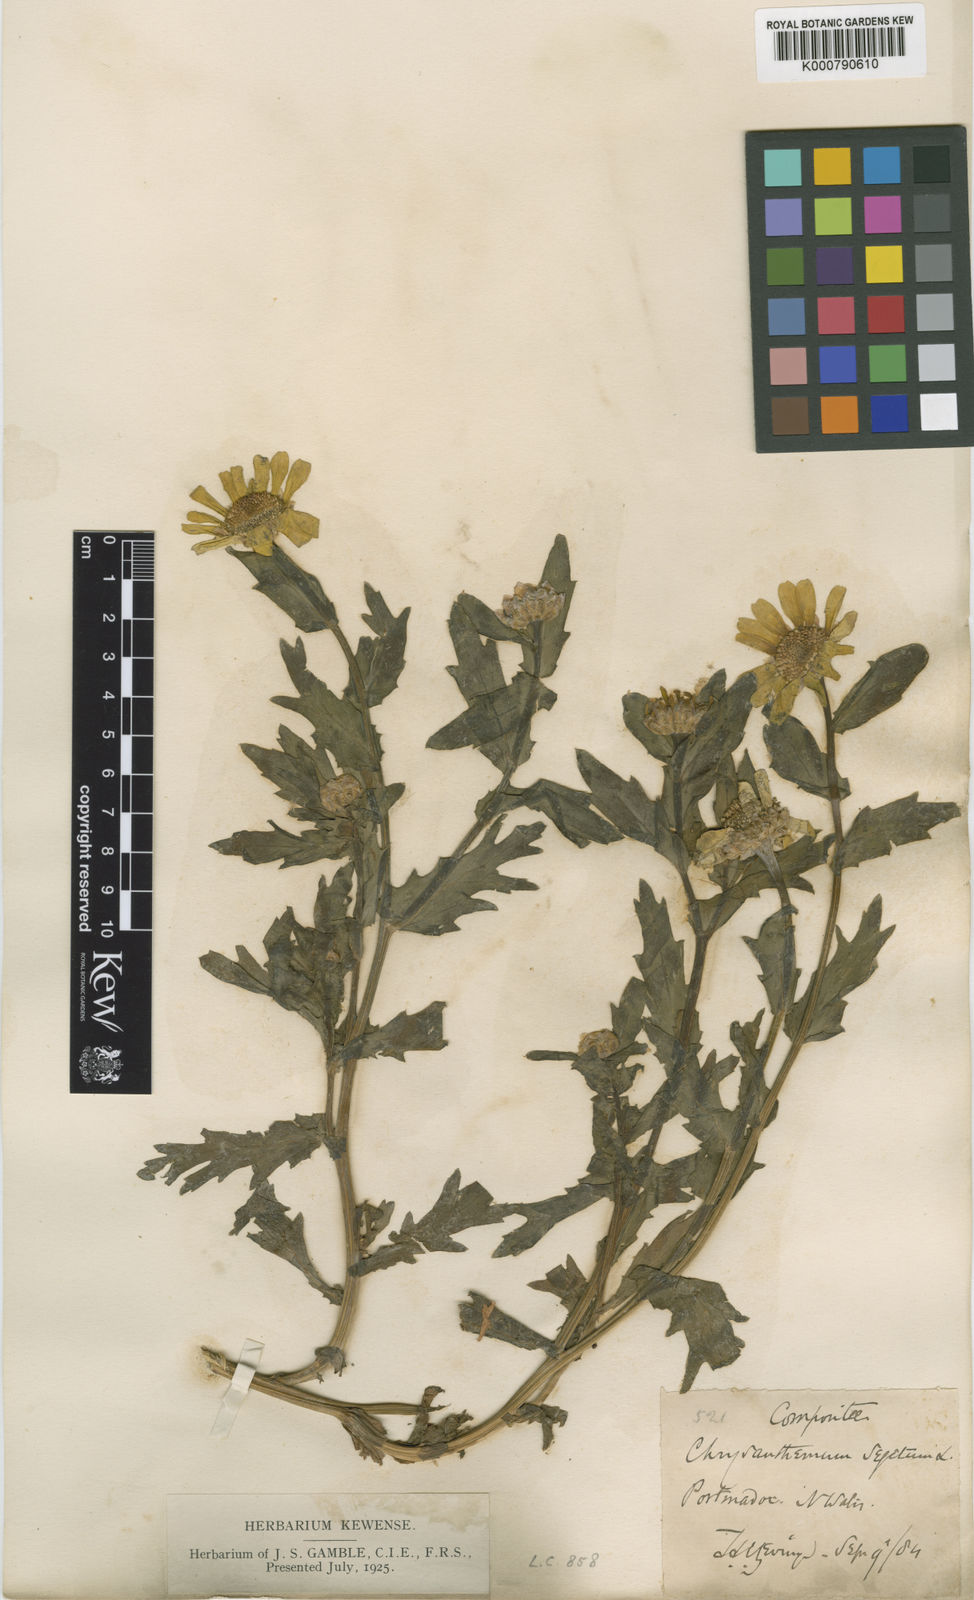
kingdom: Plantae
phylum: Tracheophyta
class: Magnoliopsida
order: Asterales
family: Asteraceae
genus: Glebionis
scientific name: Glebionis
